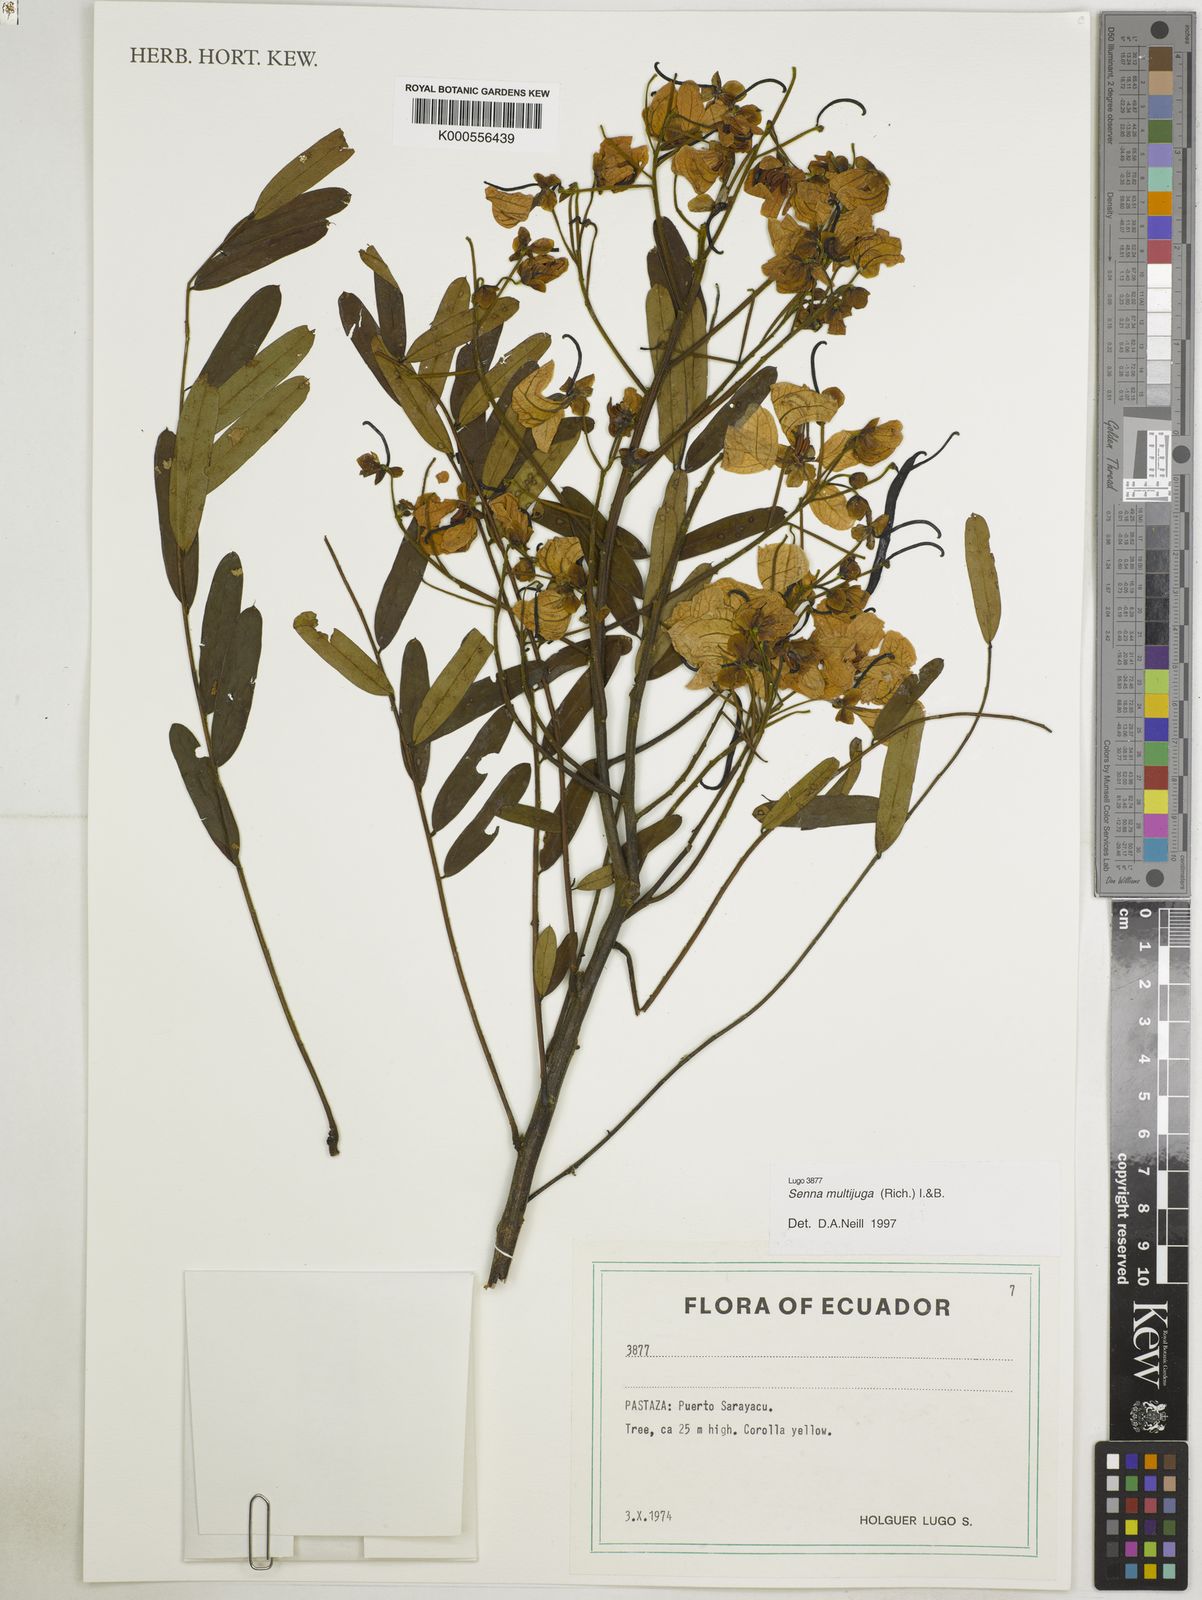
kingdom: Plantae
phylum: Tracheophyta
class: Magnoliopsida
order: Fabales
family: Fabaceae
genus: Senna
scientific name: Senna multijuga
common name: False sicklepod
